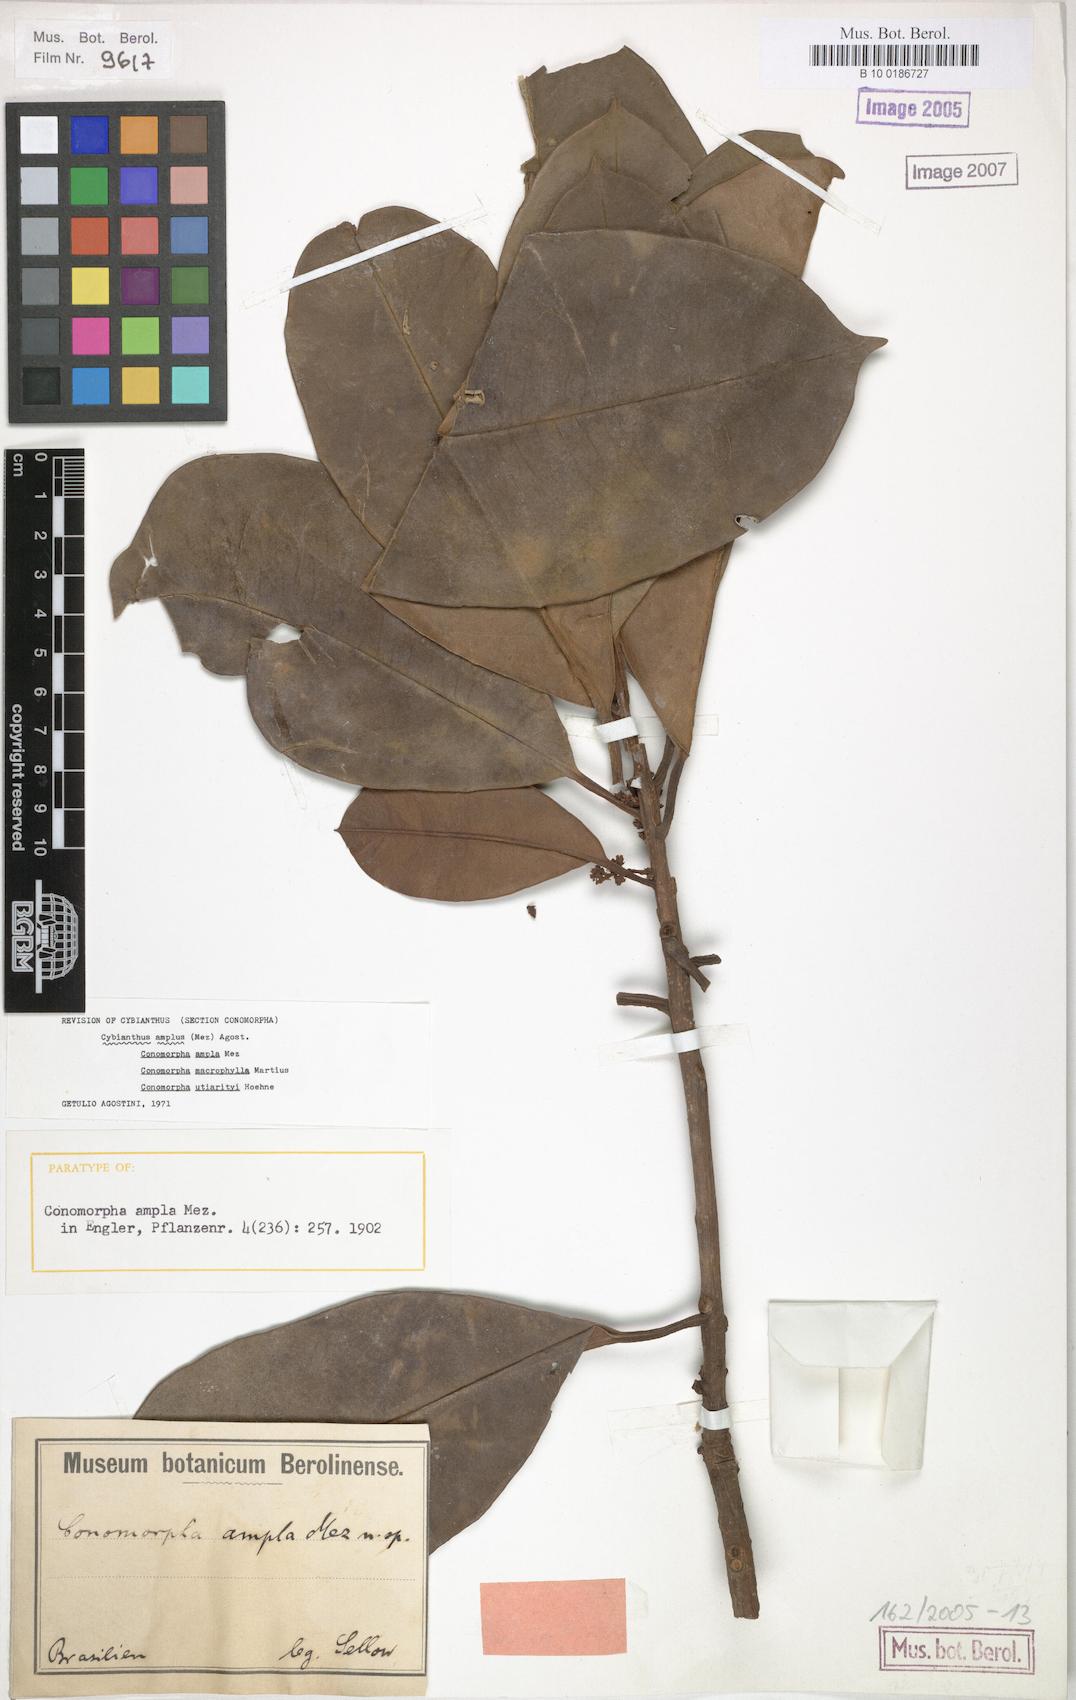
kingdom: Plantae
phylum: Tracheophyta
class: Magnoliopsida
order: Ericales
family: Primulaceae
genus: Cybianthus
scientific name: Cybianthus amplus
